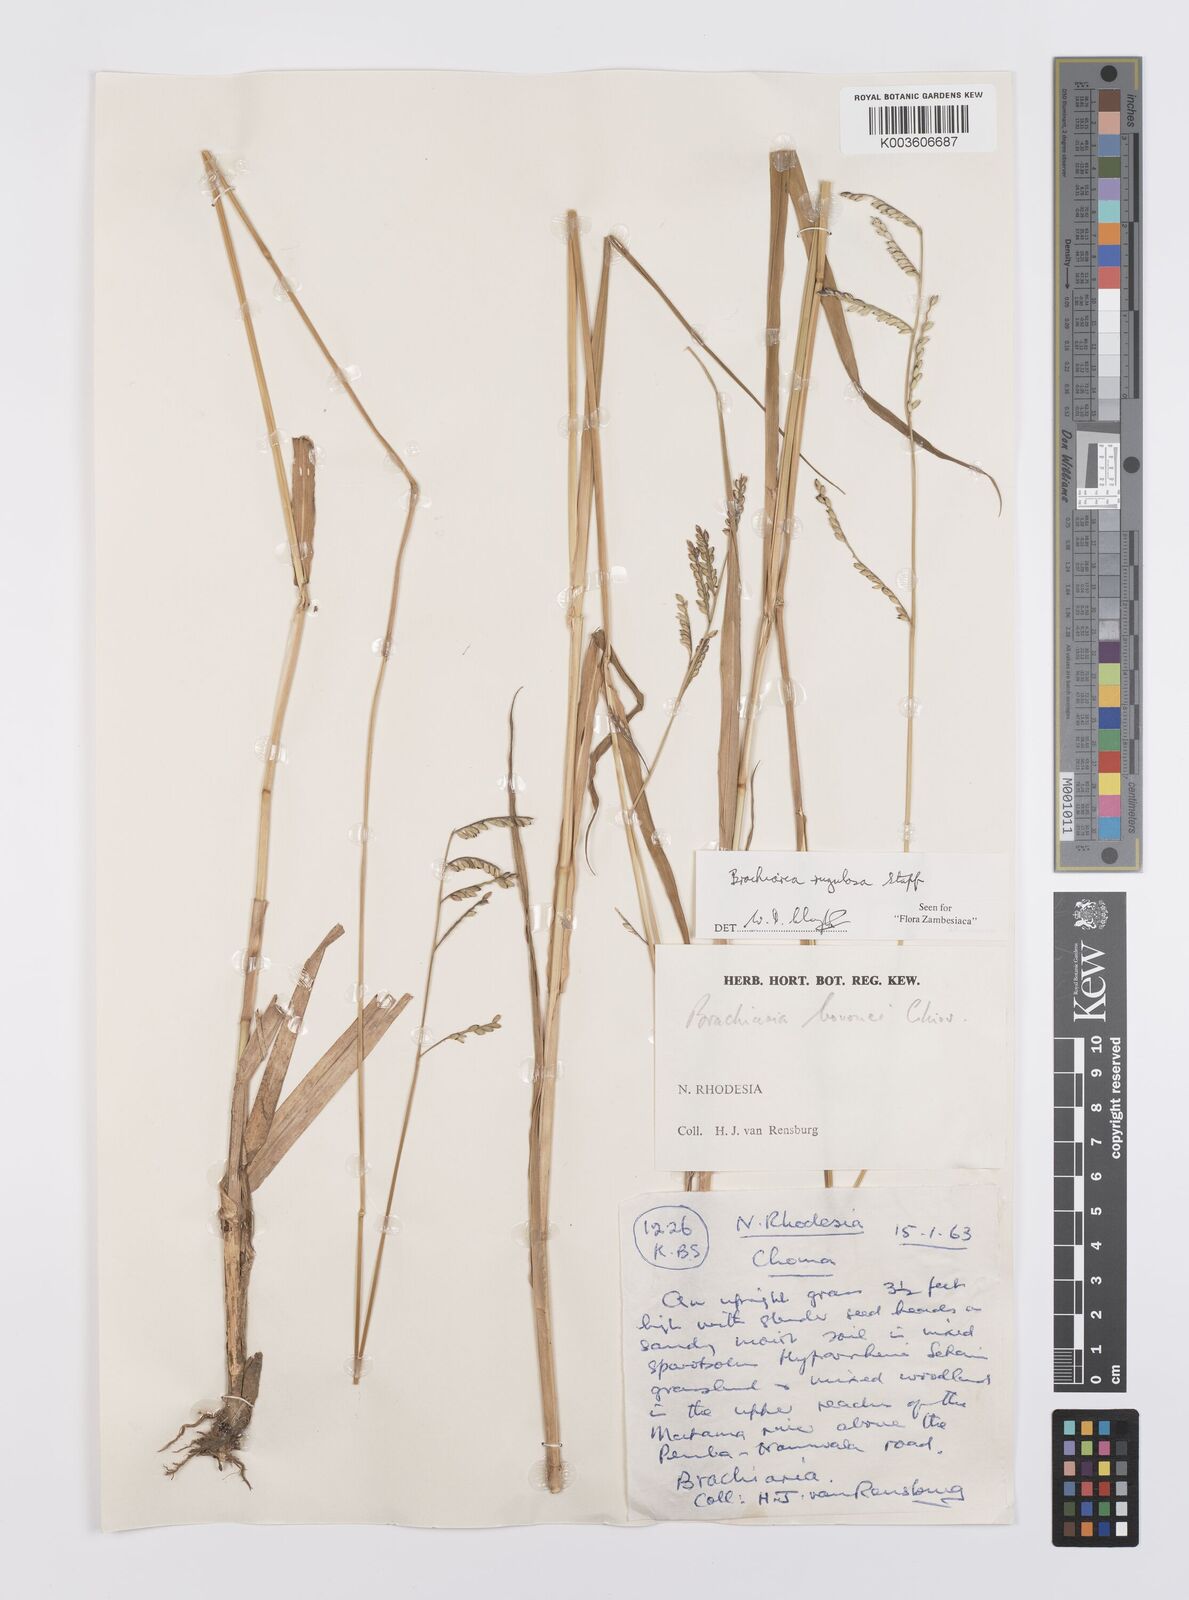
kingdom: Plantae
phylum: Tracheophyta
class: Liliopsida
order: Poales
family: Poaceae
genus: Urochloa
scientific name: Urochloa rugulosa
